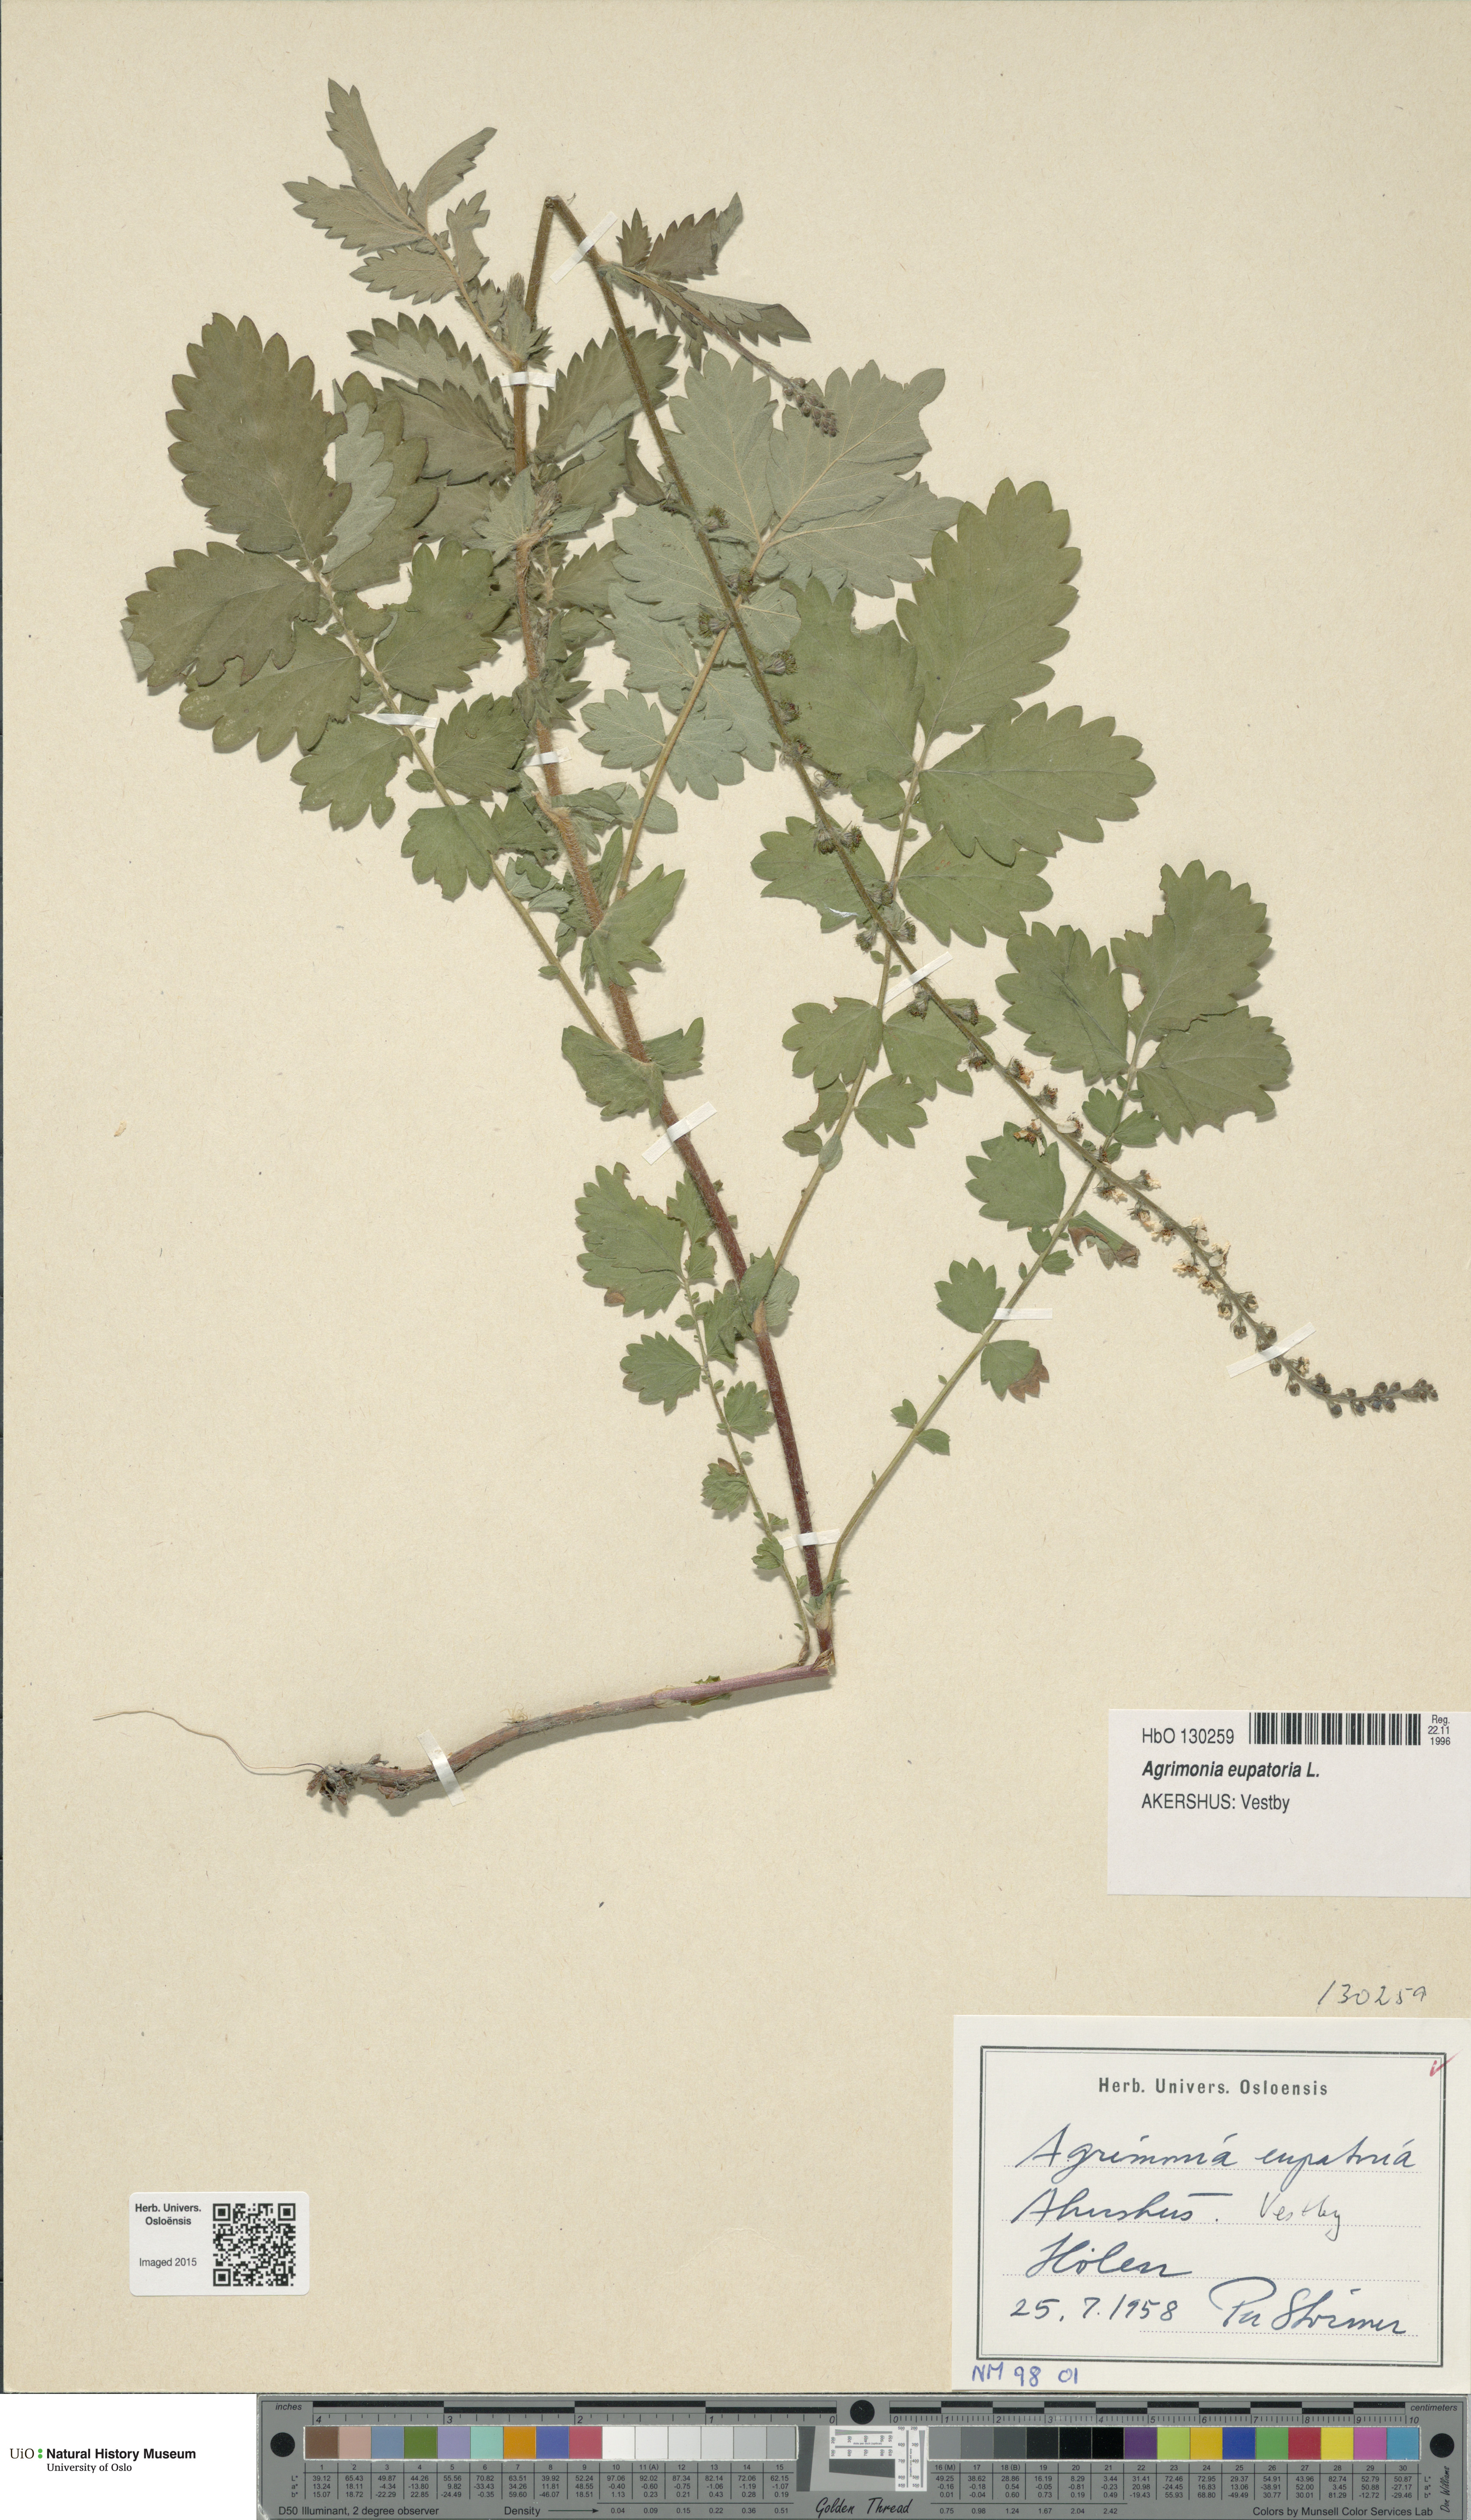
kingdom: Plantae
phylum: Tracheophyta
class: Magnoliopsida
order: Rosales
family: Rosaceae
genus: Agrimonia
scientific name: Agrimonia eupatoria
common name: Agrimony
